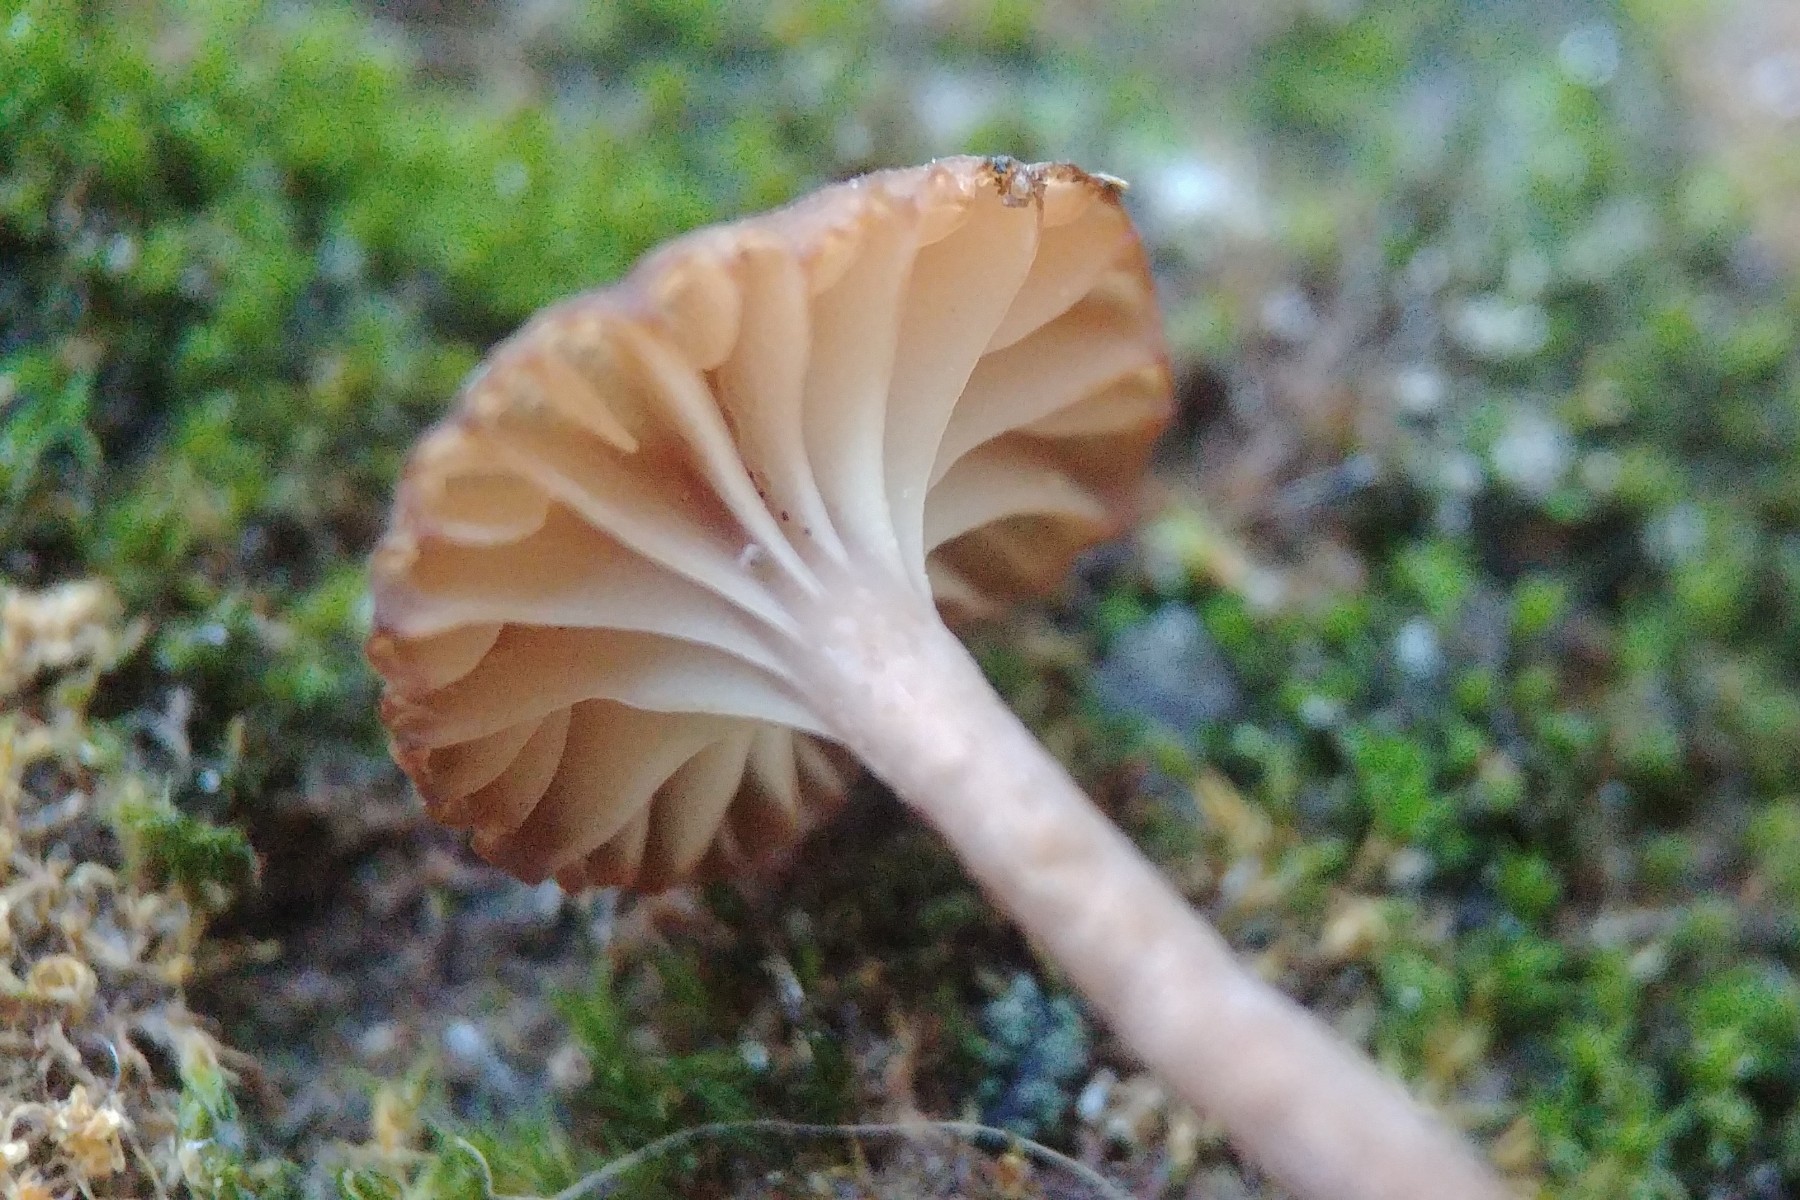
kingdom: Fungi
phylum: Basidiomycota
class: Agaricomycetes
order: Agaricales
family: Tricholomataceae
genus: Omphalina
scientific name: Omphalina pyxidata
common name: rødbrun navlehat
